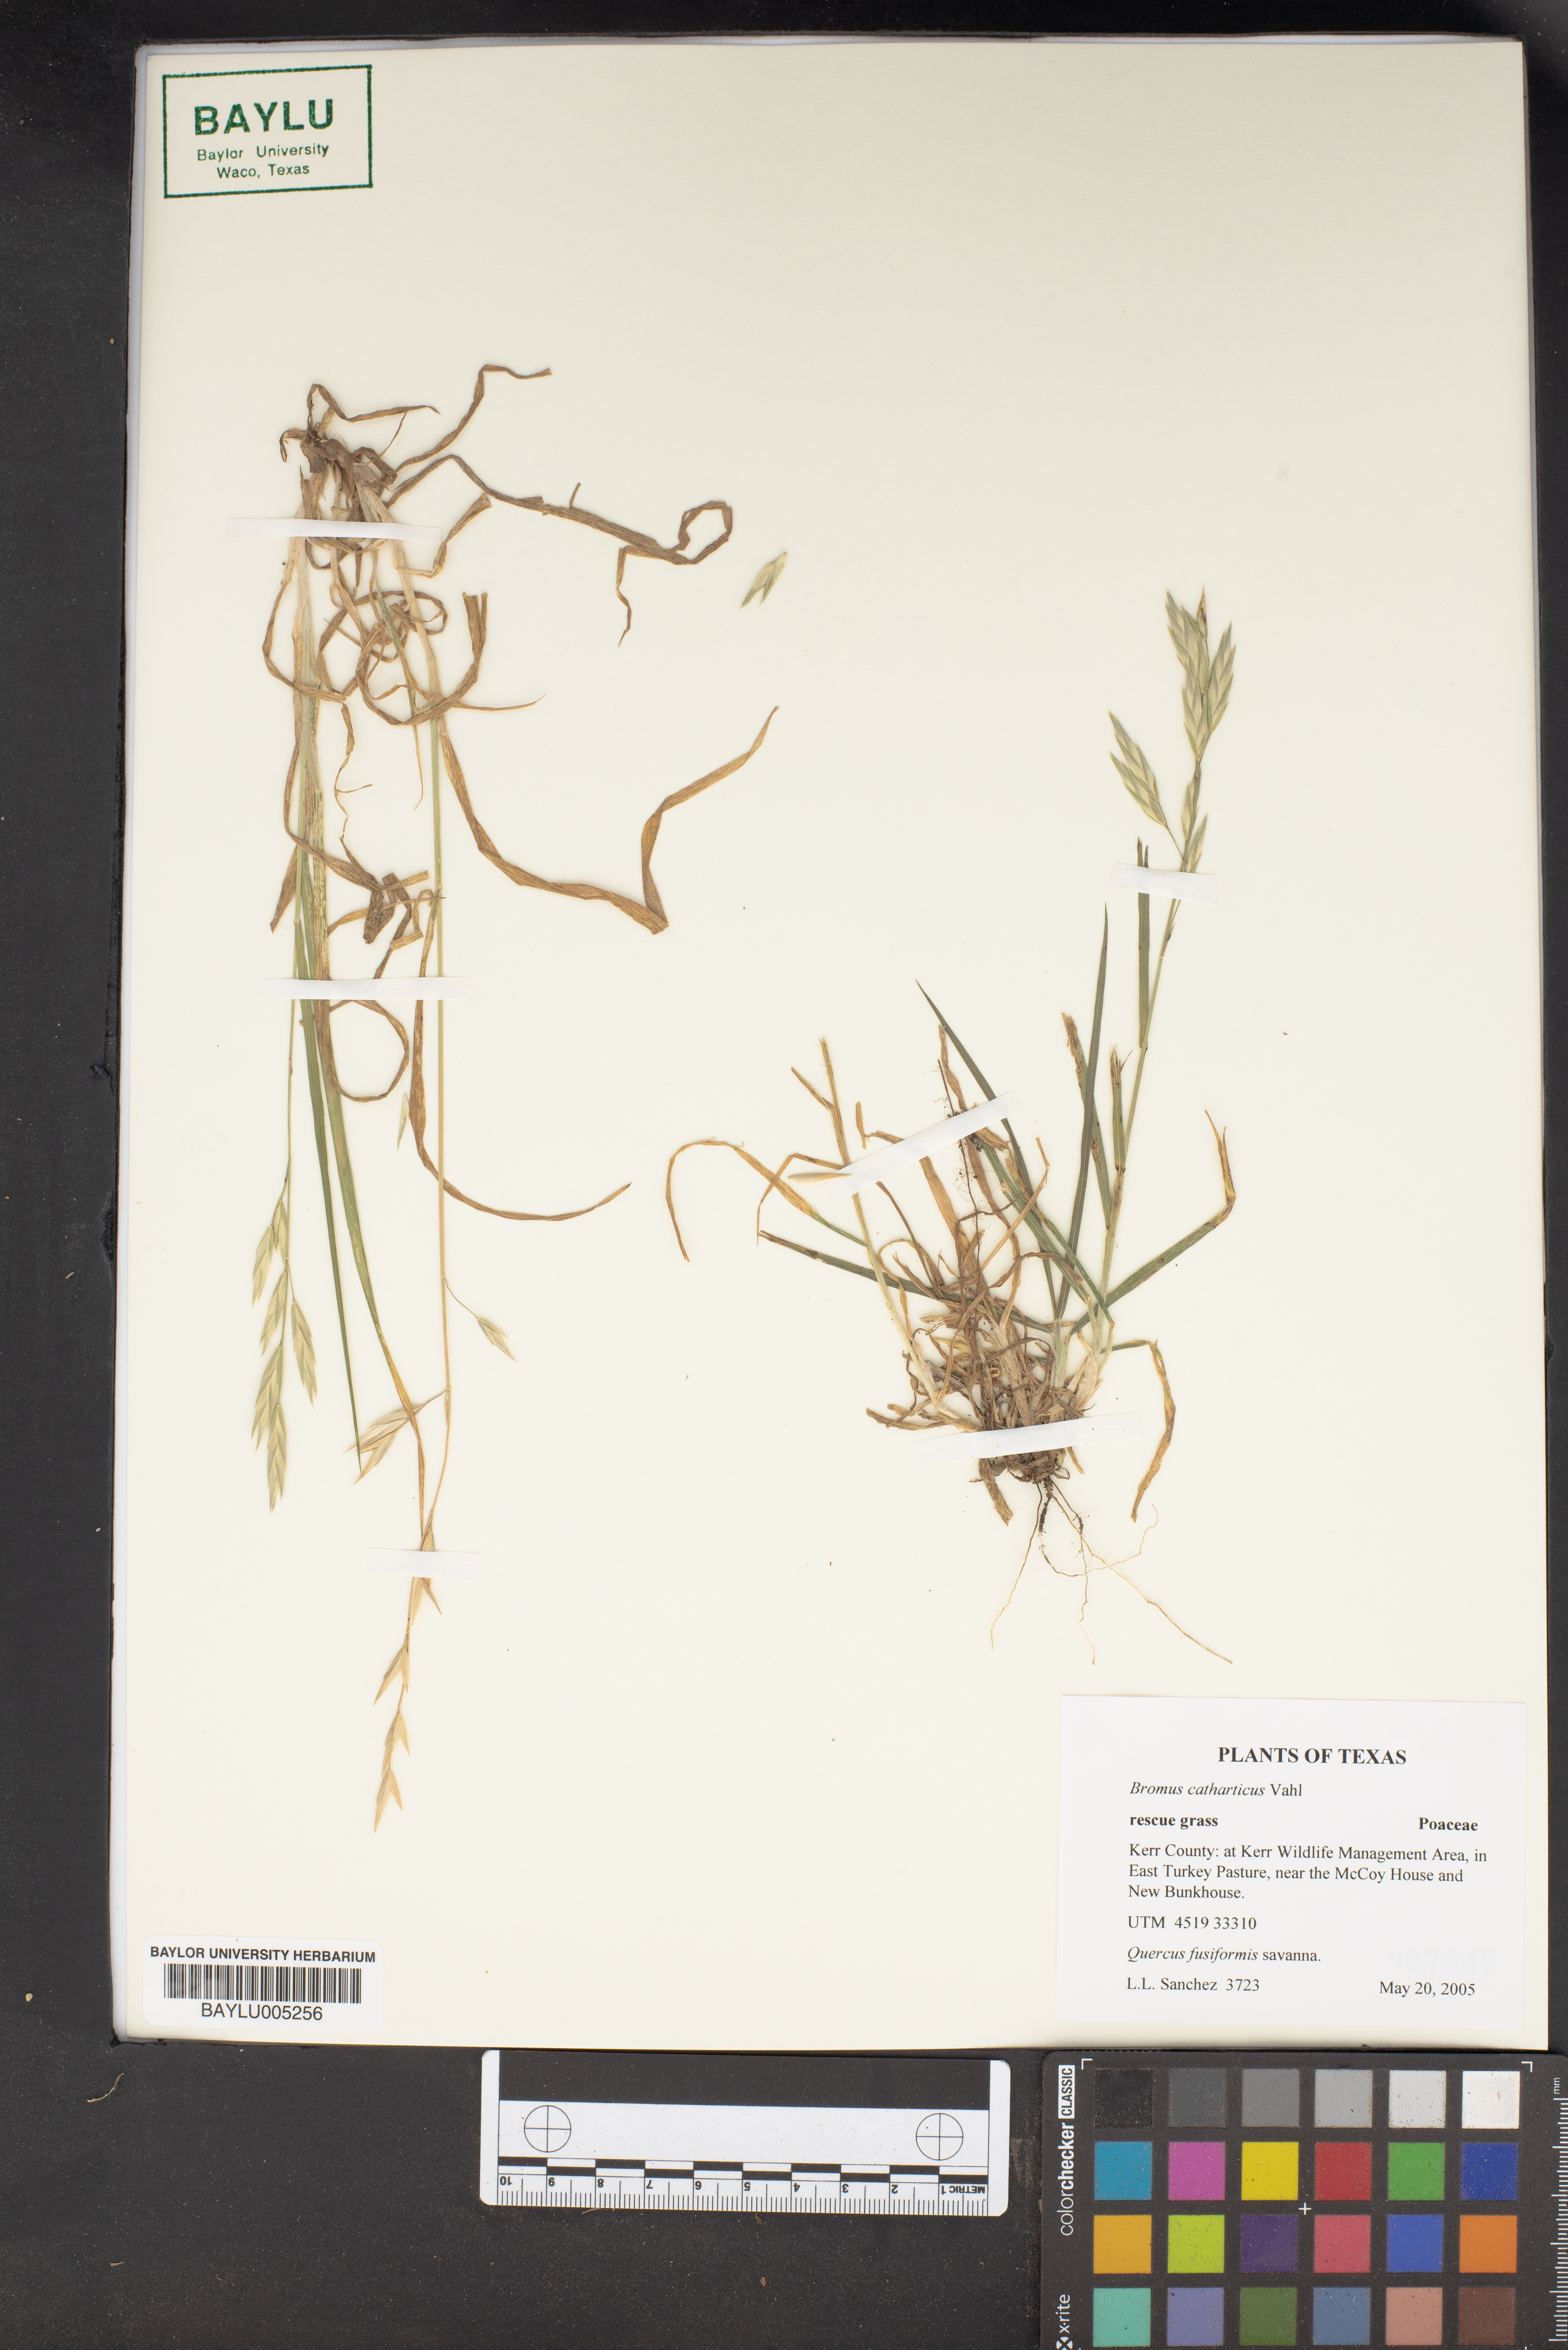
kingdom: Plantae
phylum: Tracheophyta
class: Liliopsida
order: Poales
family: Poaceae
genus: Bromus
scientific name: Bromus catharticus
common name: Rescuegrass
